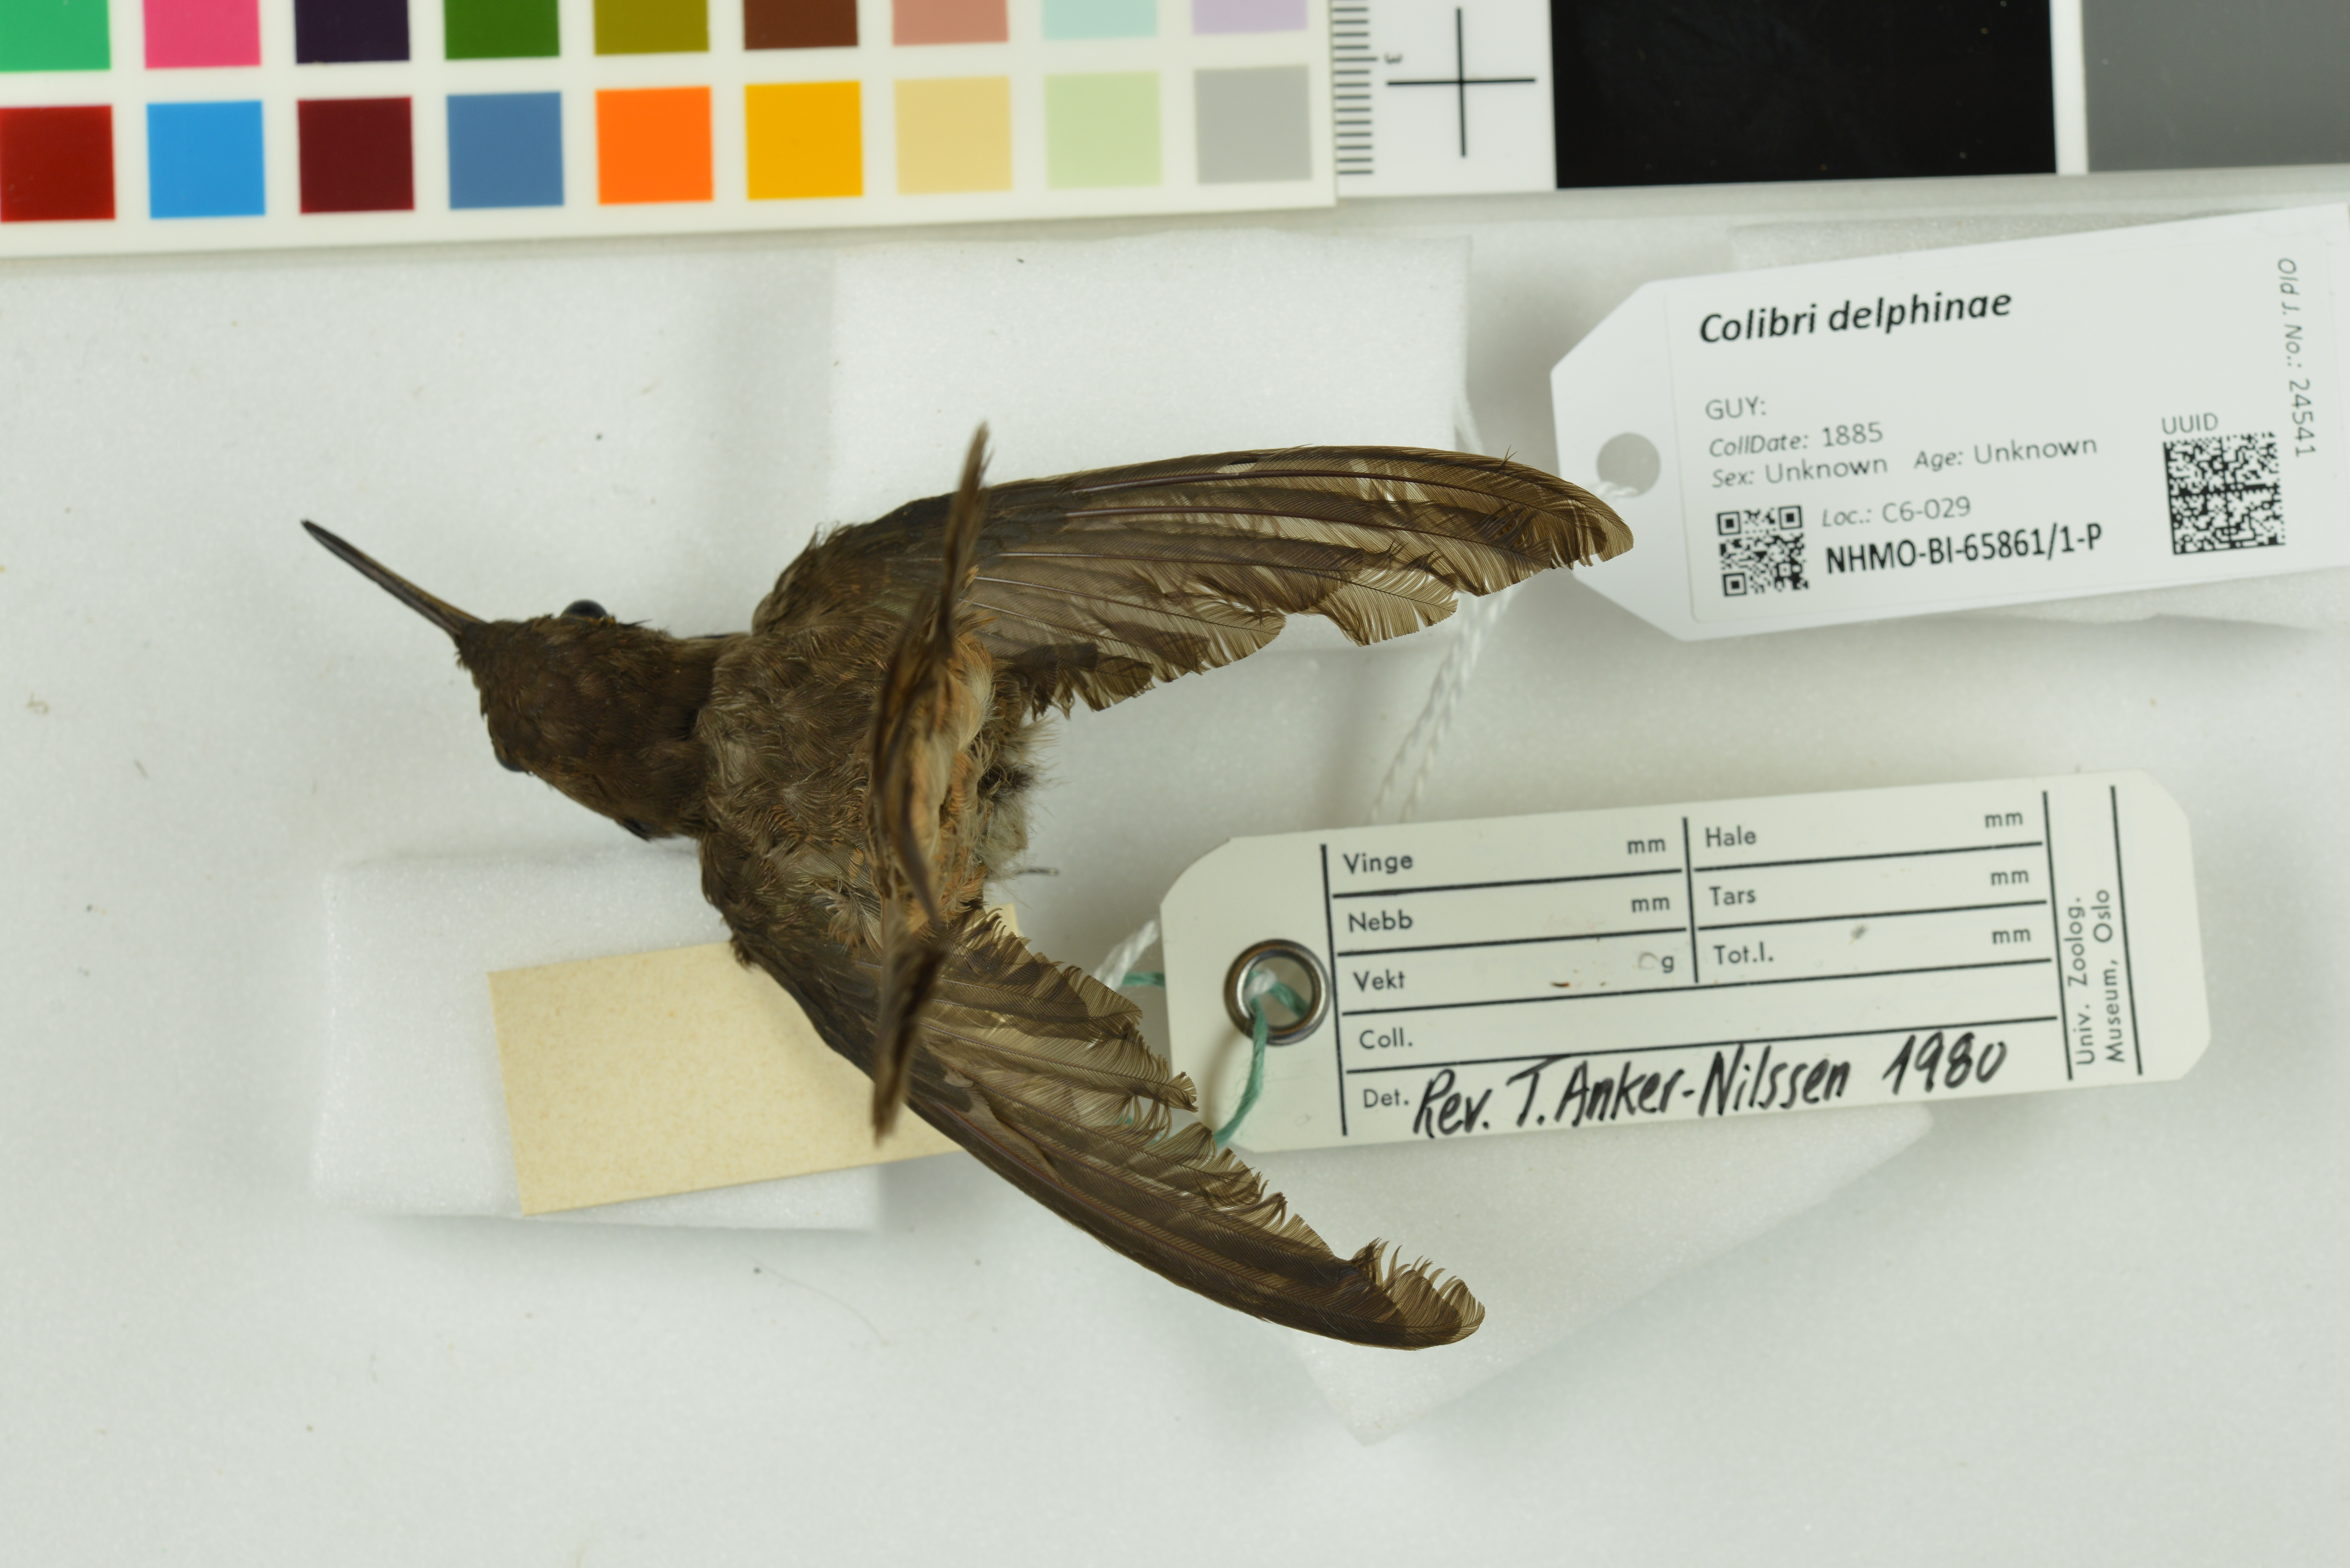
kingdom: Animalia
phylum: Chordata
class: Aves
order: Apodiformes
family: Trochilidae
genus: Colibri
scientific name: Colibri delphinae
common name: Brown violetear
